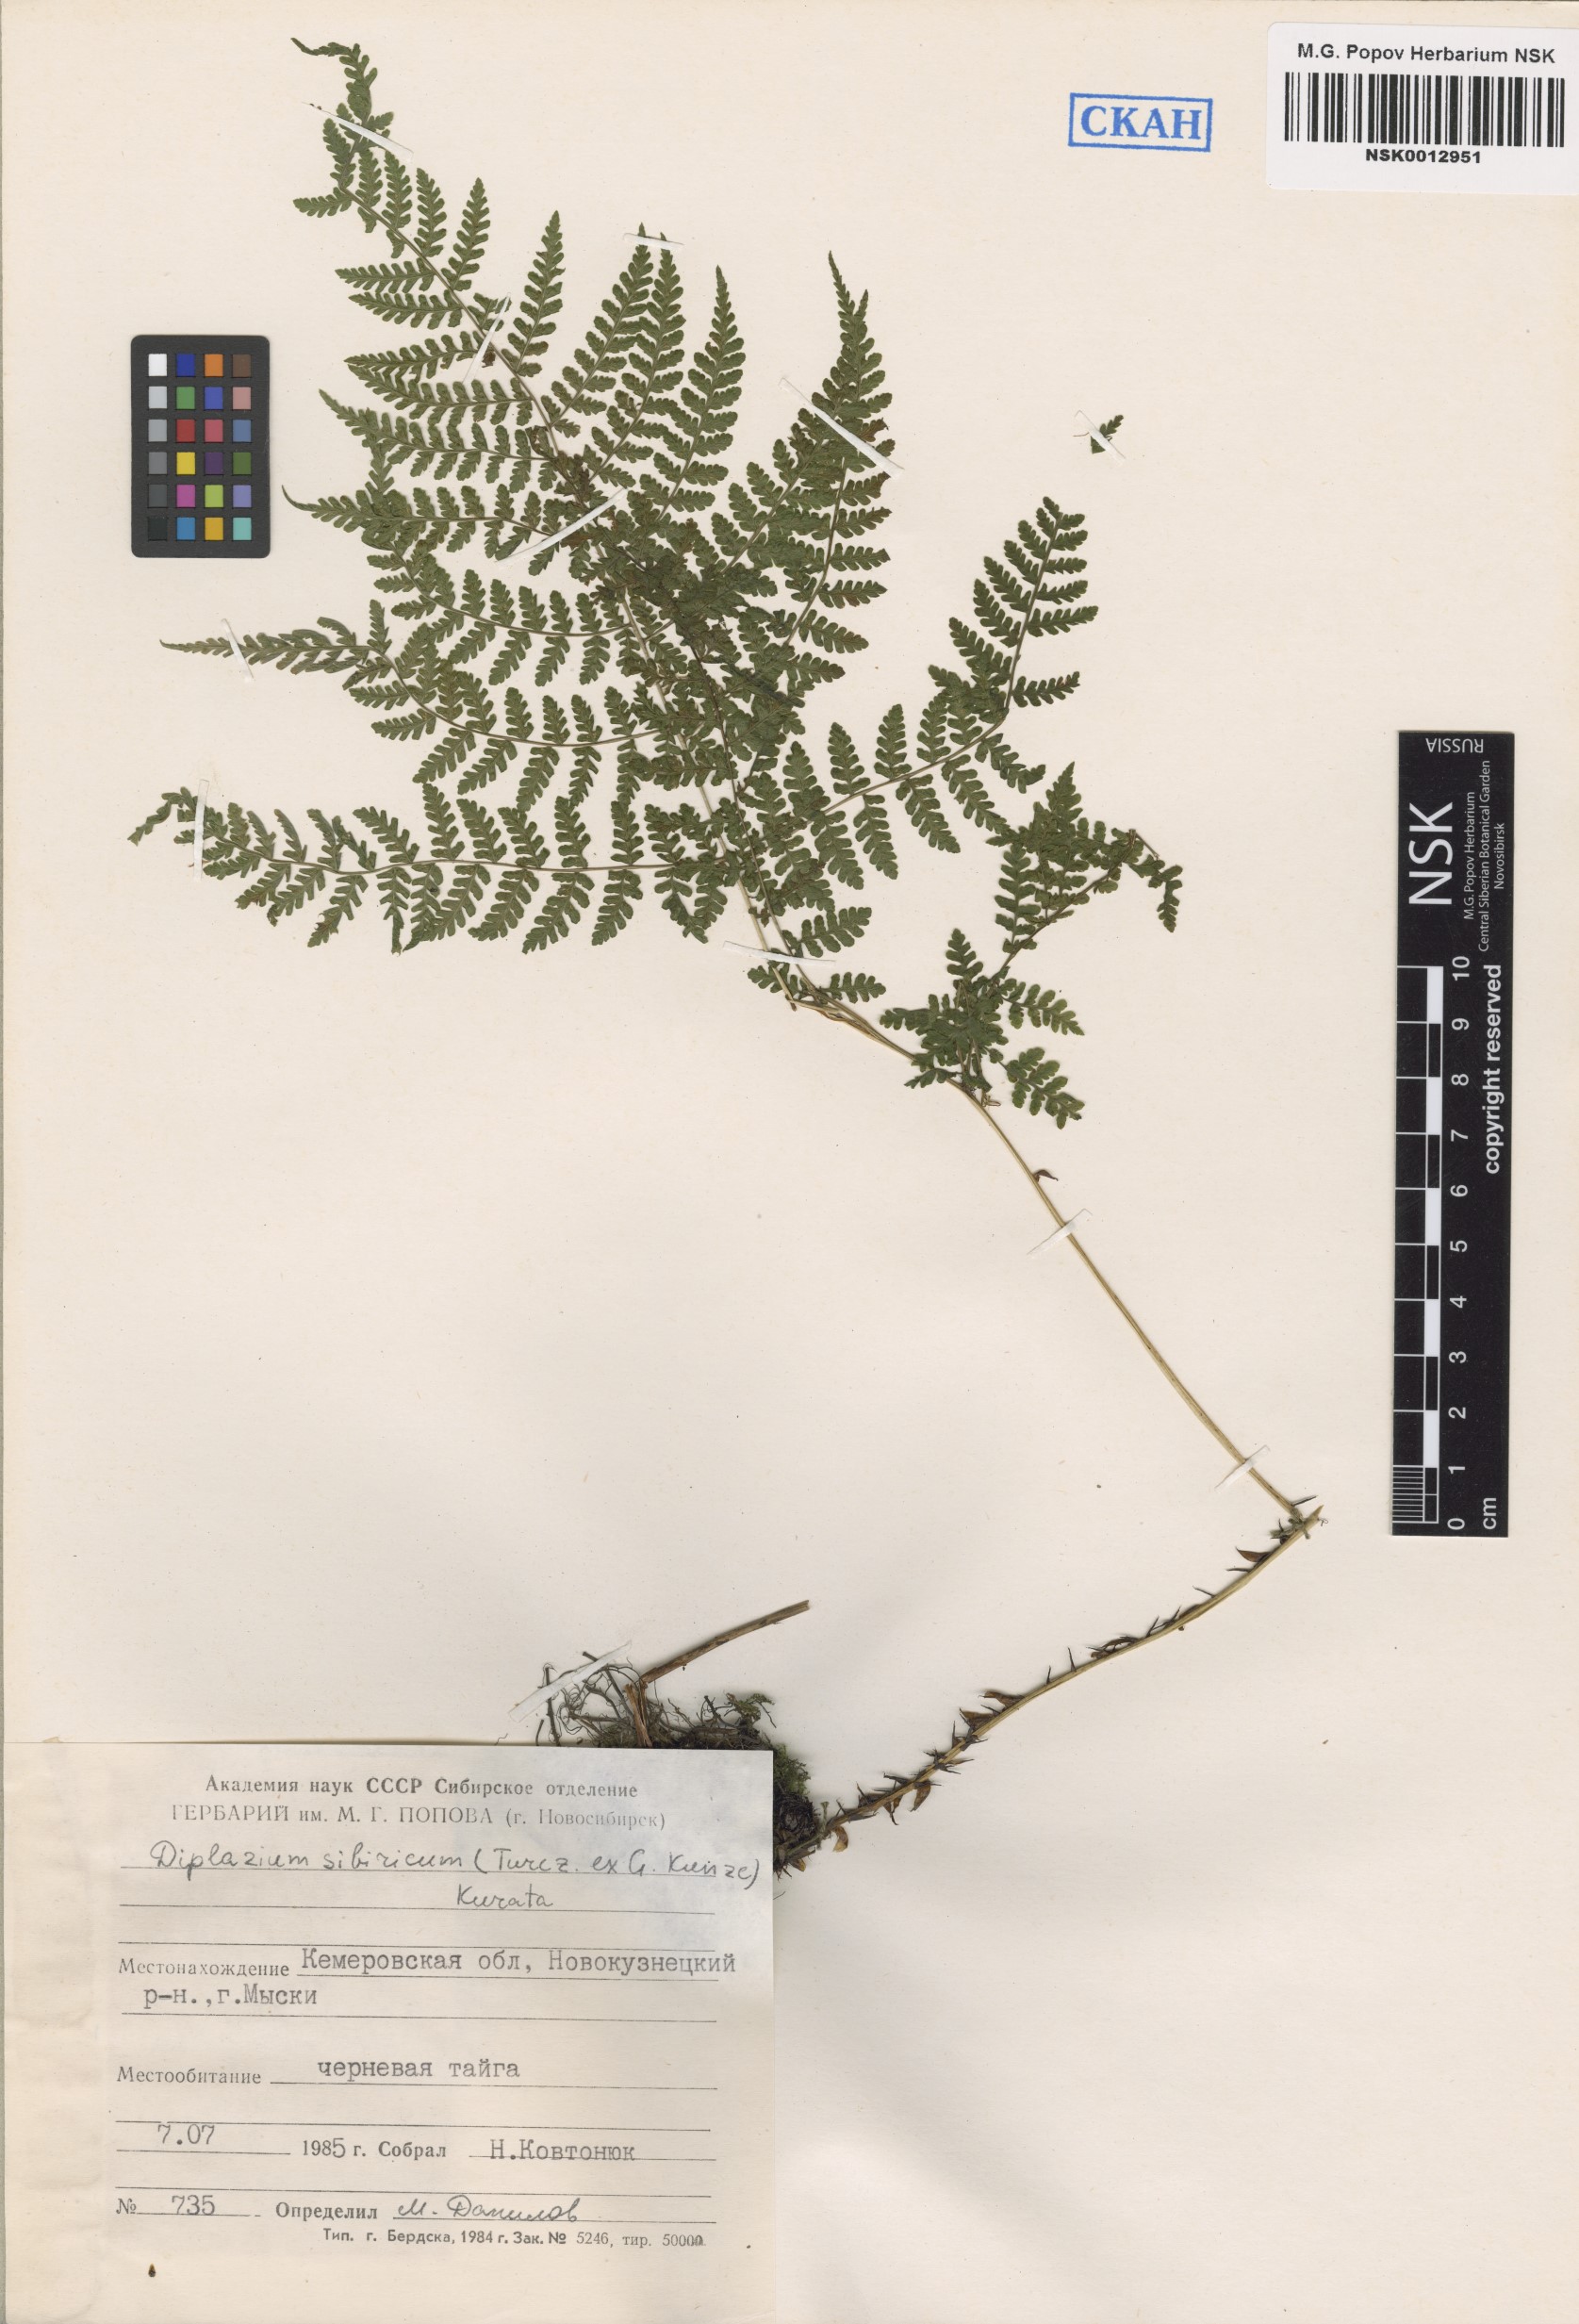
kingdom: Plantae
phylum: Tracheophyta
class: Polypodiopsida
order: Polypodiales
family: Athyriaceae
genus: Diplazium
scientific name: Diplazium sibiricum
